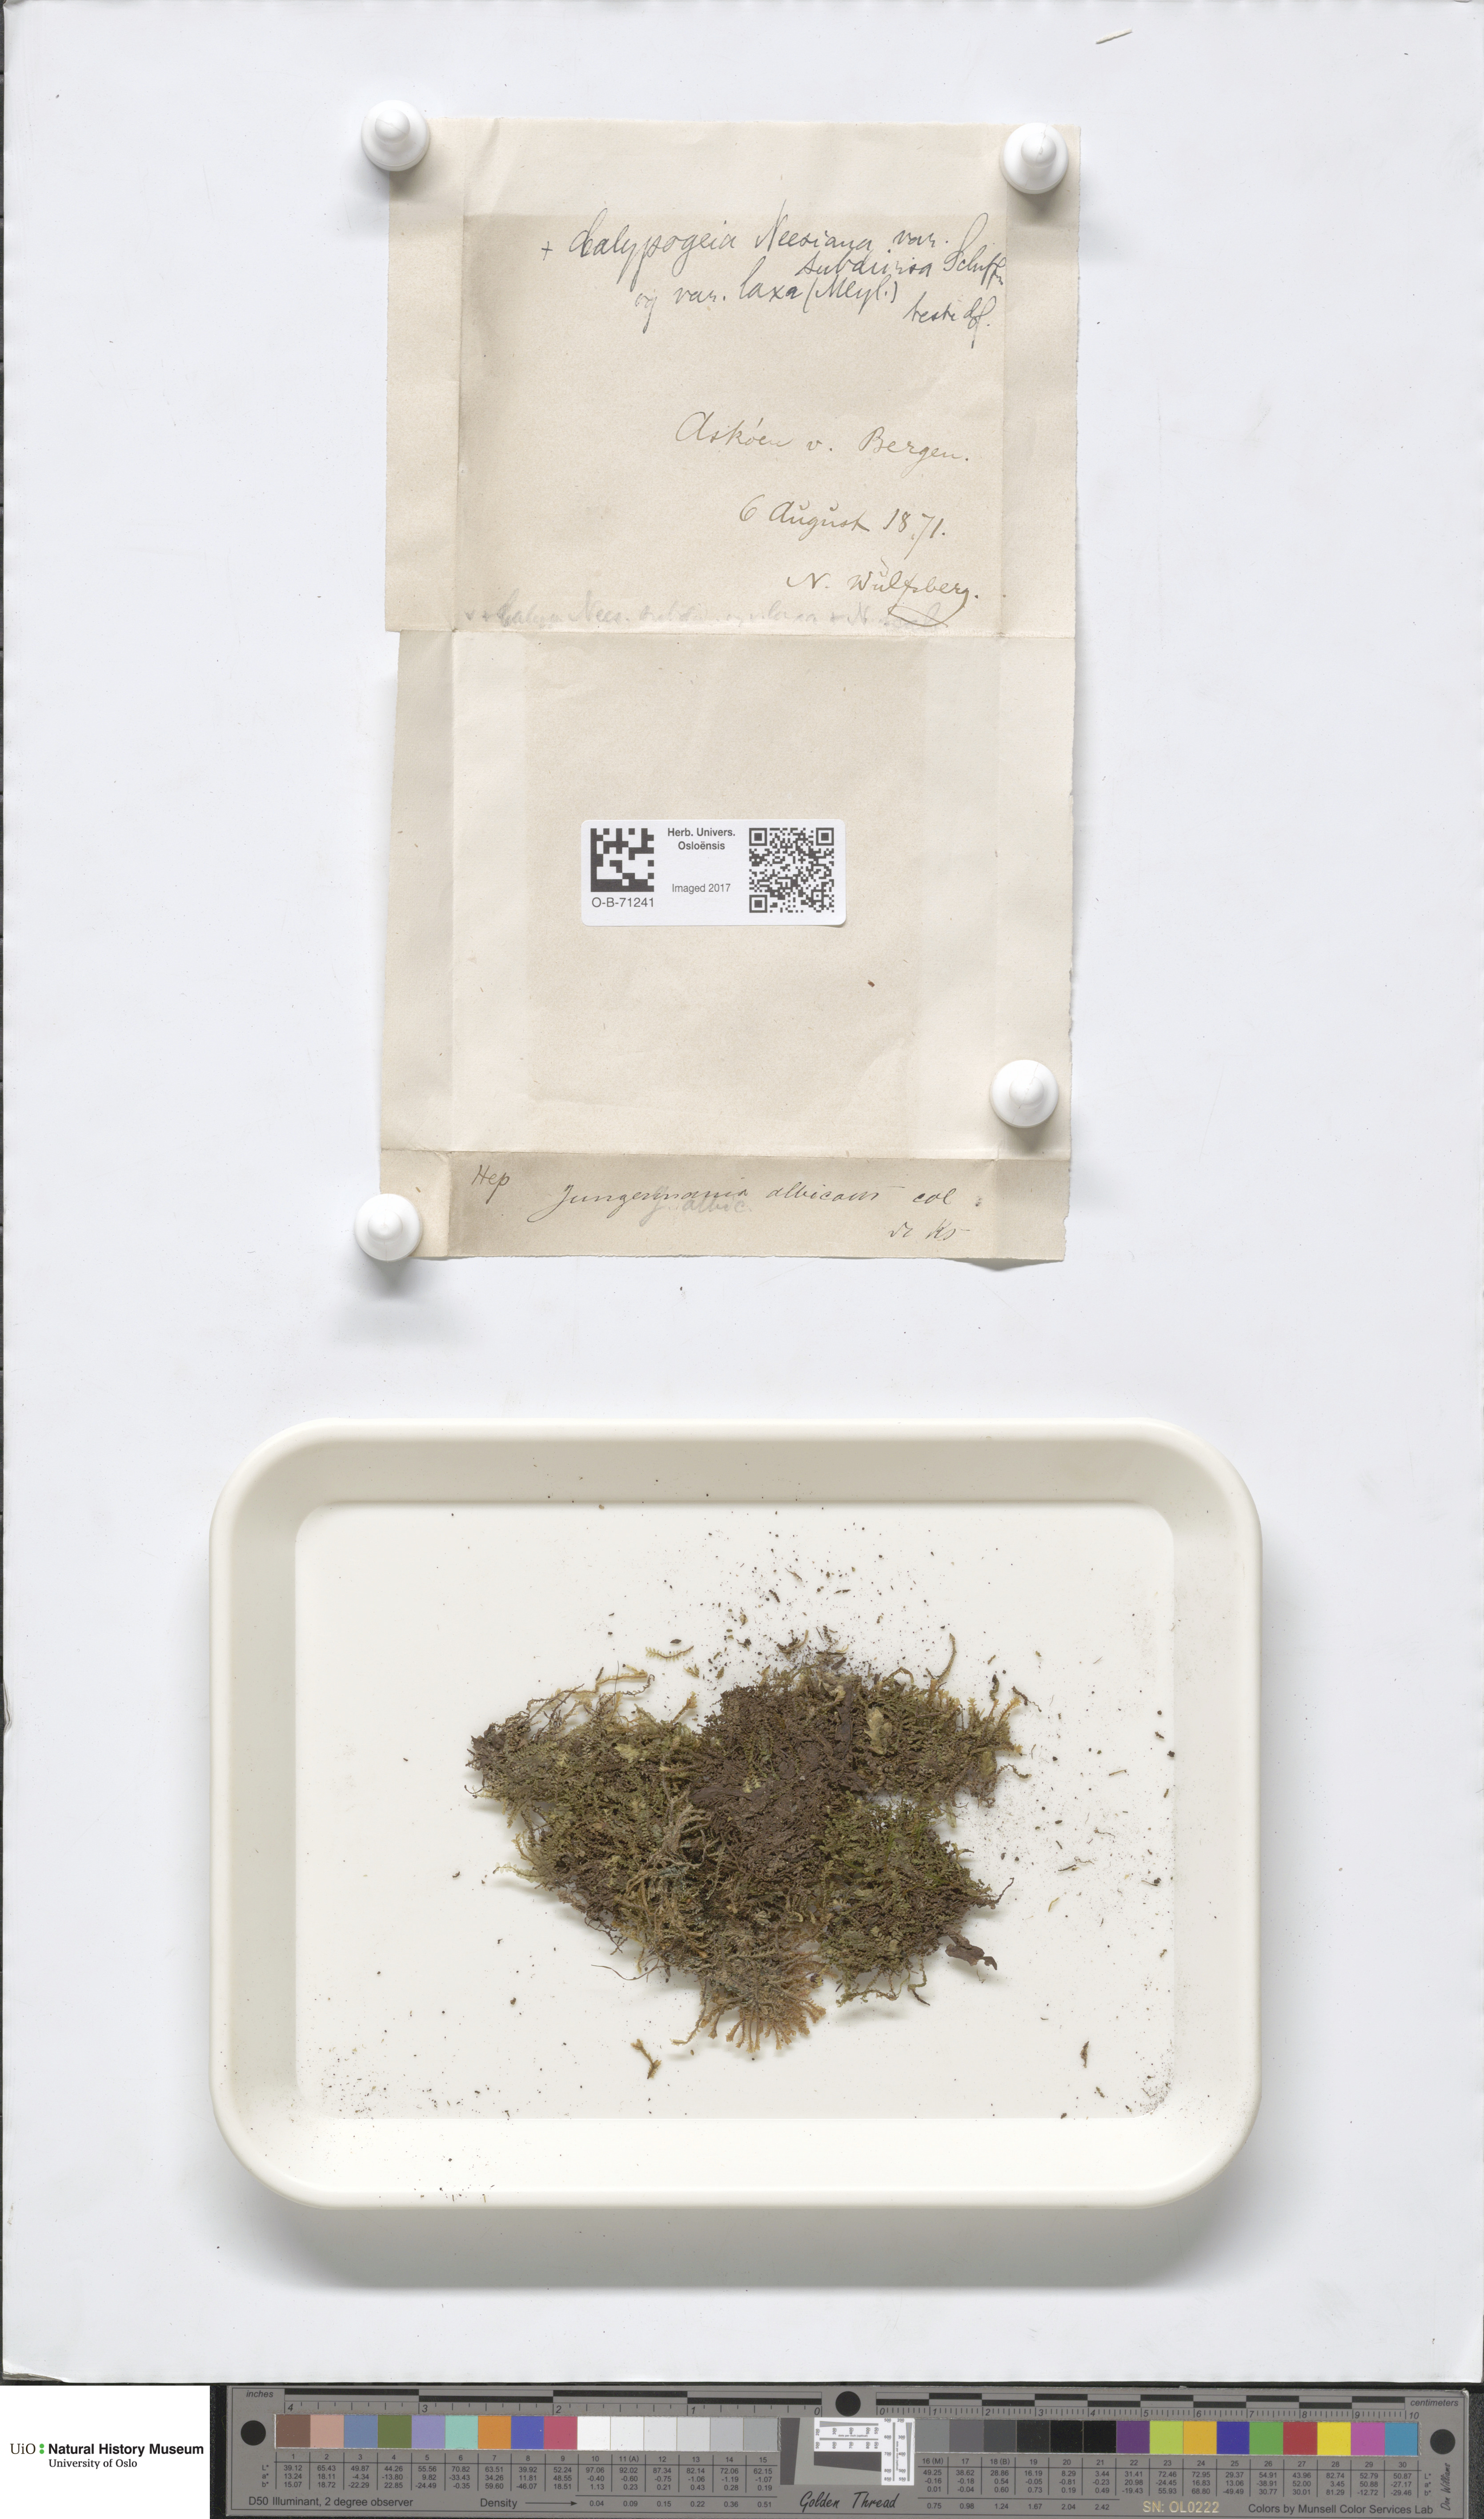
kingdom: Plantae
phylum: Marchantiophyta
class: Jungermanniopsida
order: Jungermanniales
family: Calypogeiaceae
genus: Calypogeia
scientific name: Calypogeia neesiana
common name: Nees  pouchwort
